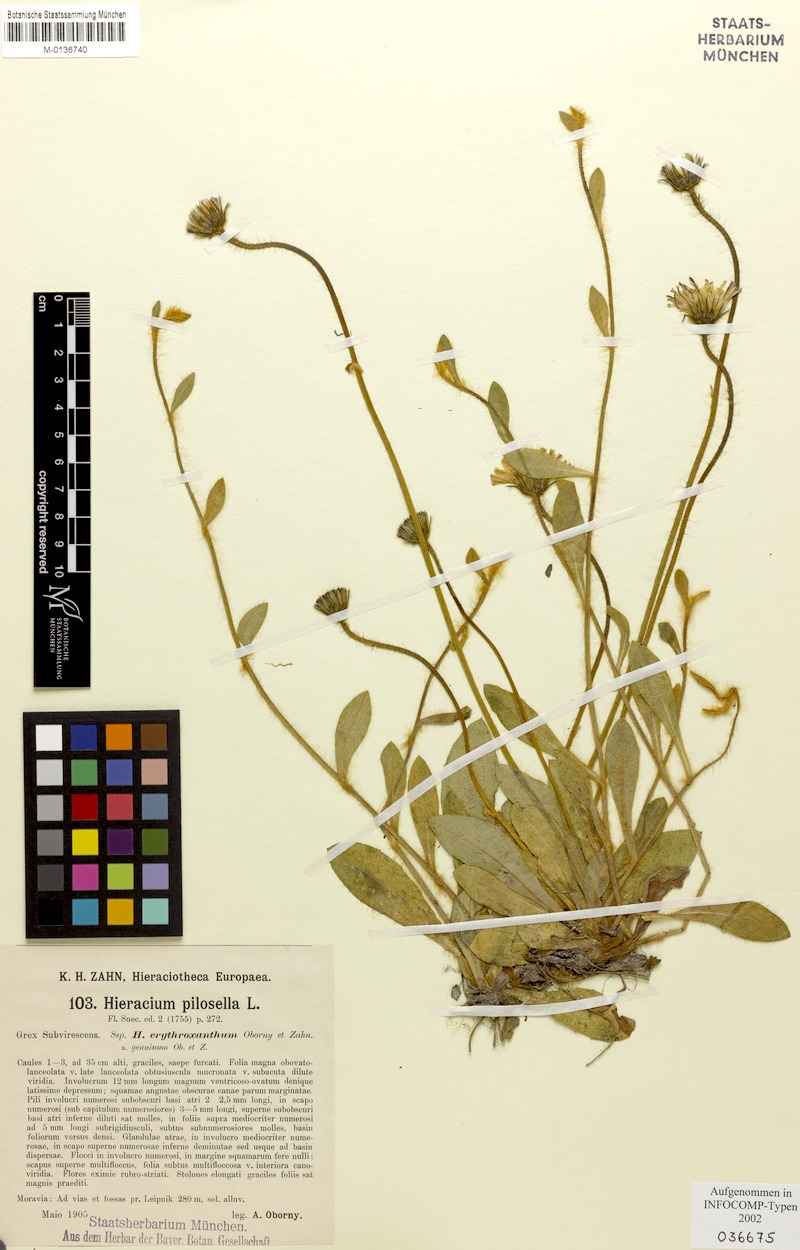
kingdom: Plantae
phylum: Tracheophyta
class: Magnoliopsida
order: Asterales
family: Asteraceae
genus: Pilosella
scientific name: Pilosella officinarum
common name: Mouse-ear hawkweed
